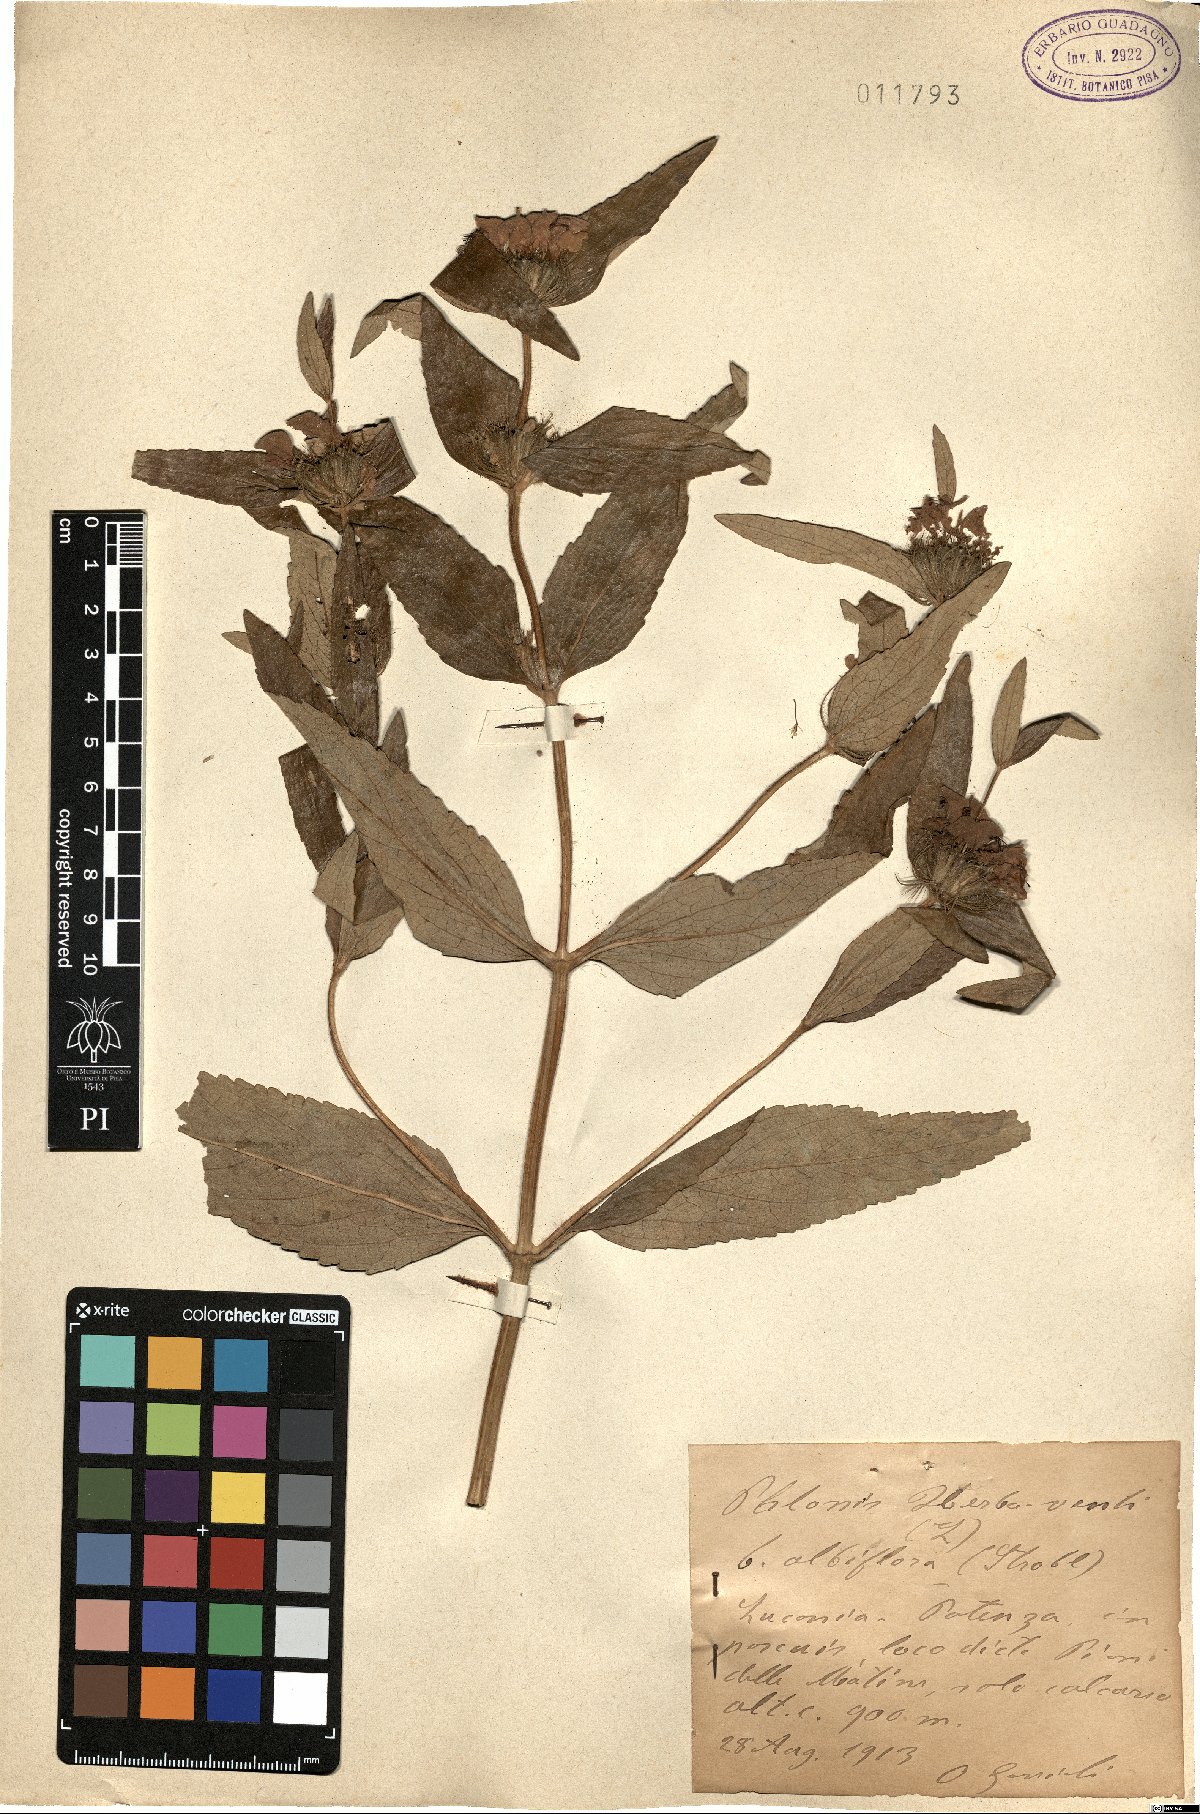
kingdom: Plantae
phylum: Tracheophyta
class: Magnoliopsida
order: Lamiales
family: Lamiaceae
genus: Phlomis
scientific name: Phlomis herba-venti
